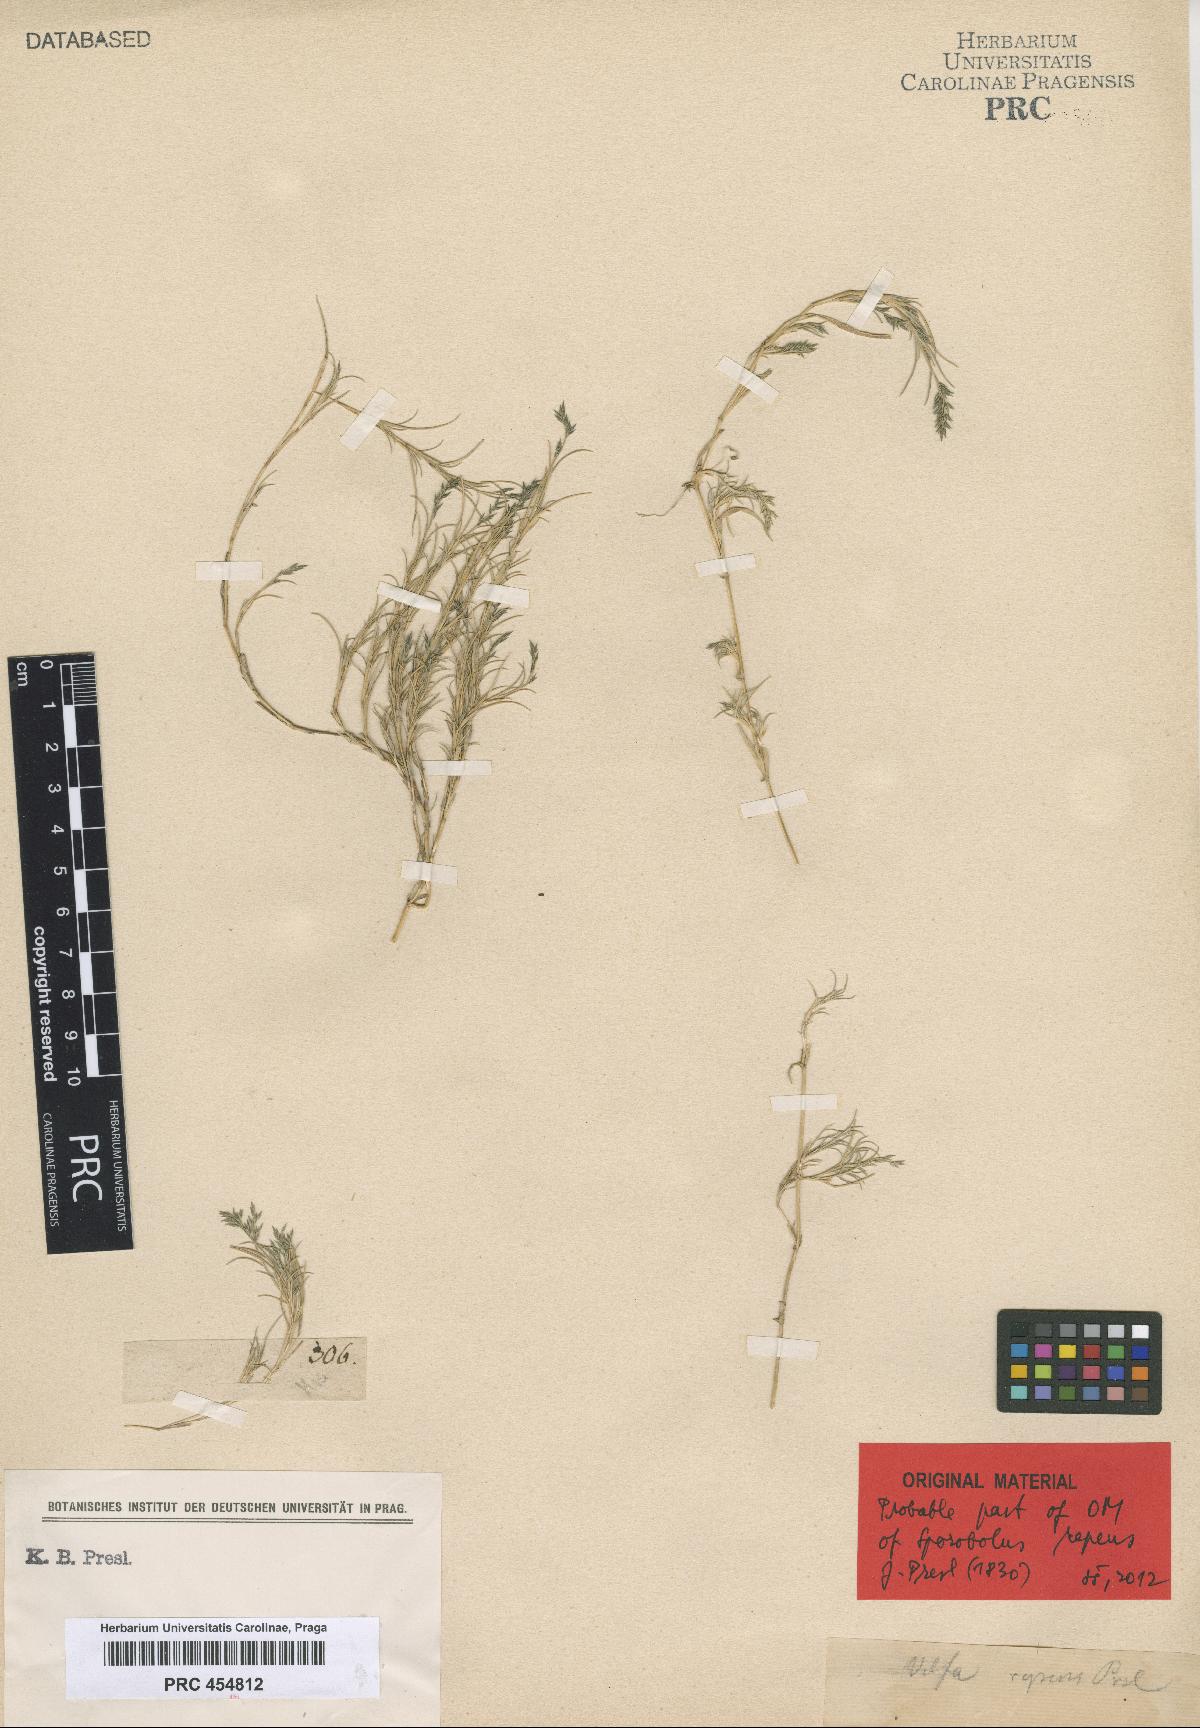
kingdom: Plantae
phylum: Tracheophyta
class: Liliopsida
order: Poales
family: Poaceae
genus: Muhlenbergia
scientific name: Muhlenbergia repens
